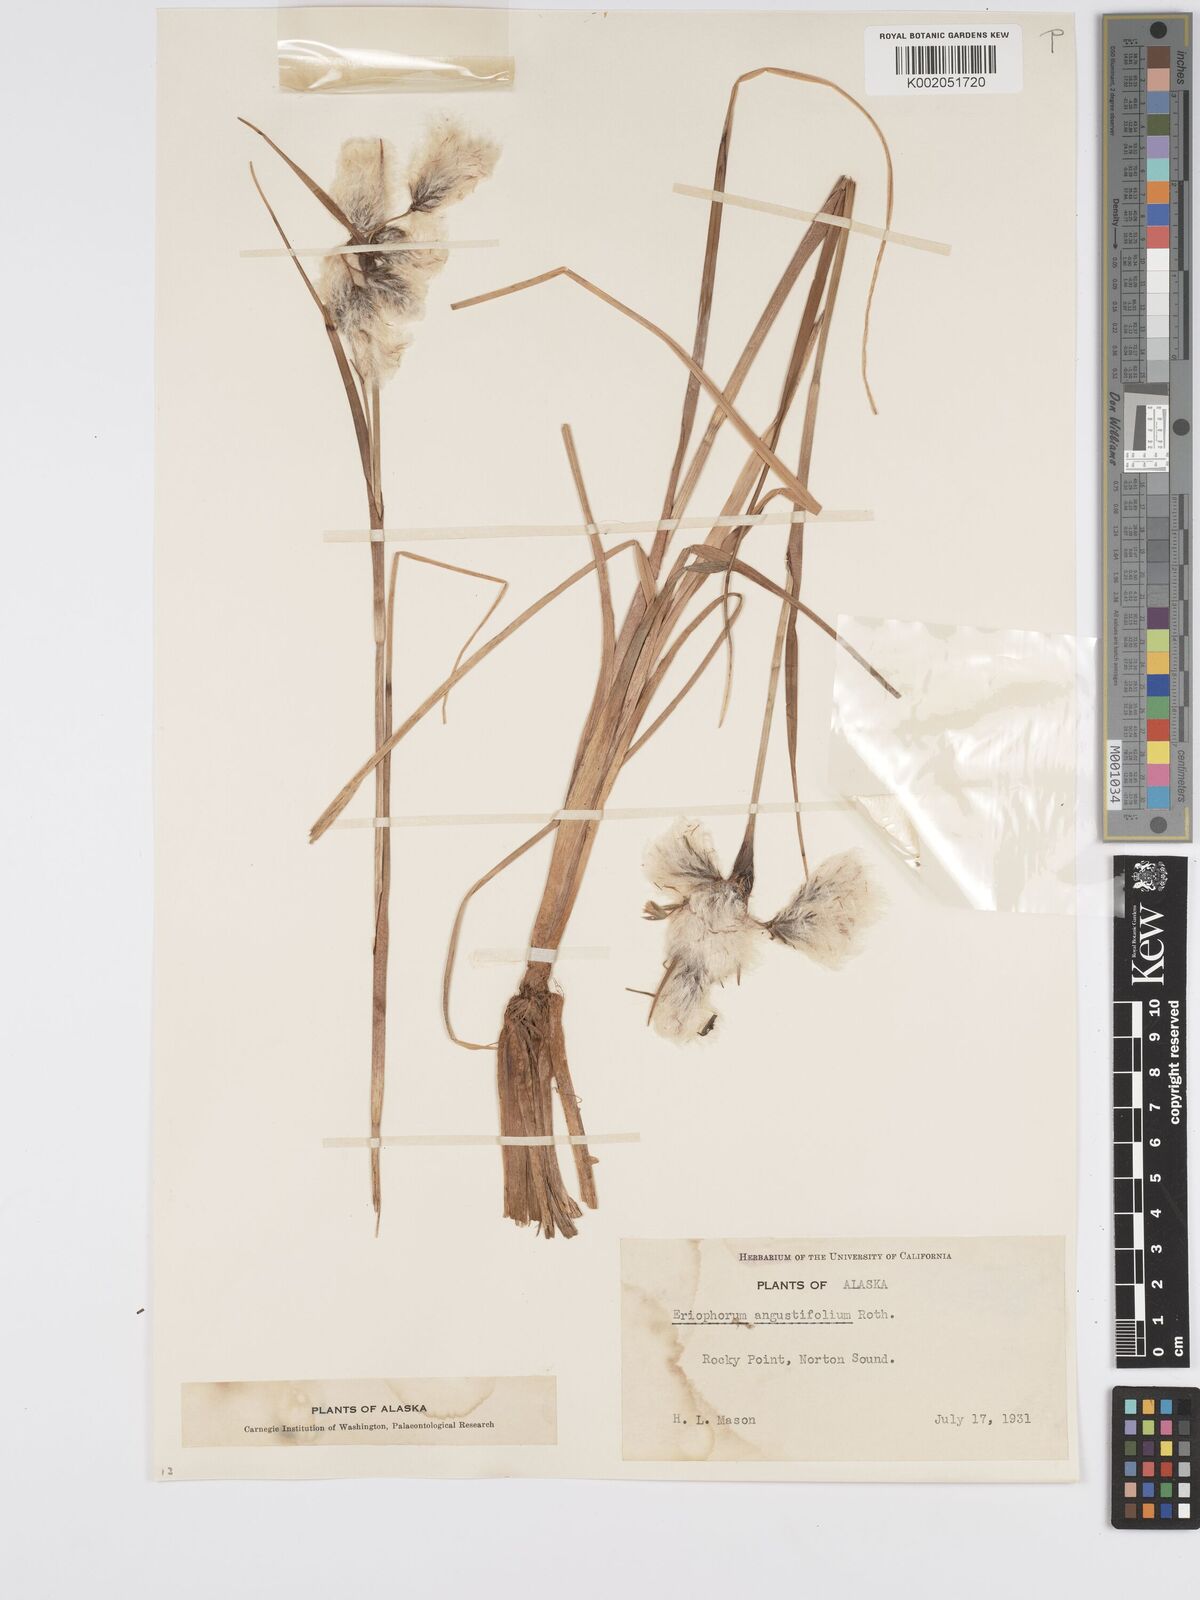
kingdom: Plantae
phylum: Tracheophyta
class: Liliopsida
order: Poales
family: Cyperaceae
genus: Eriophorum
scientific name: Eriophorum angustifolium
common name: Common cottongrass
